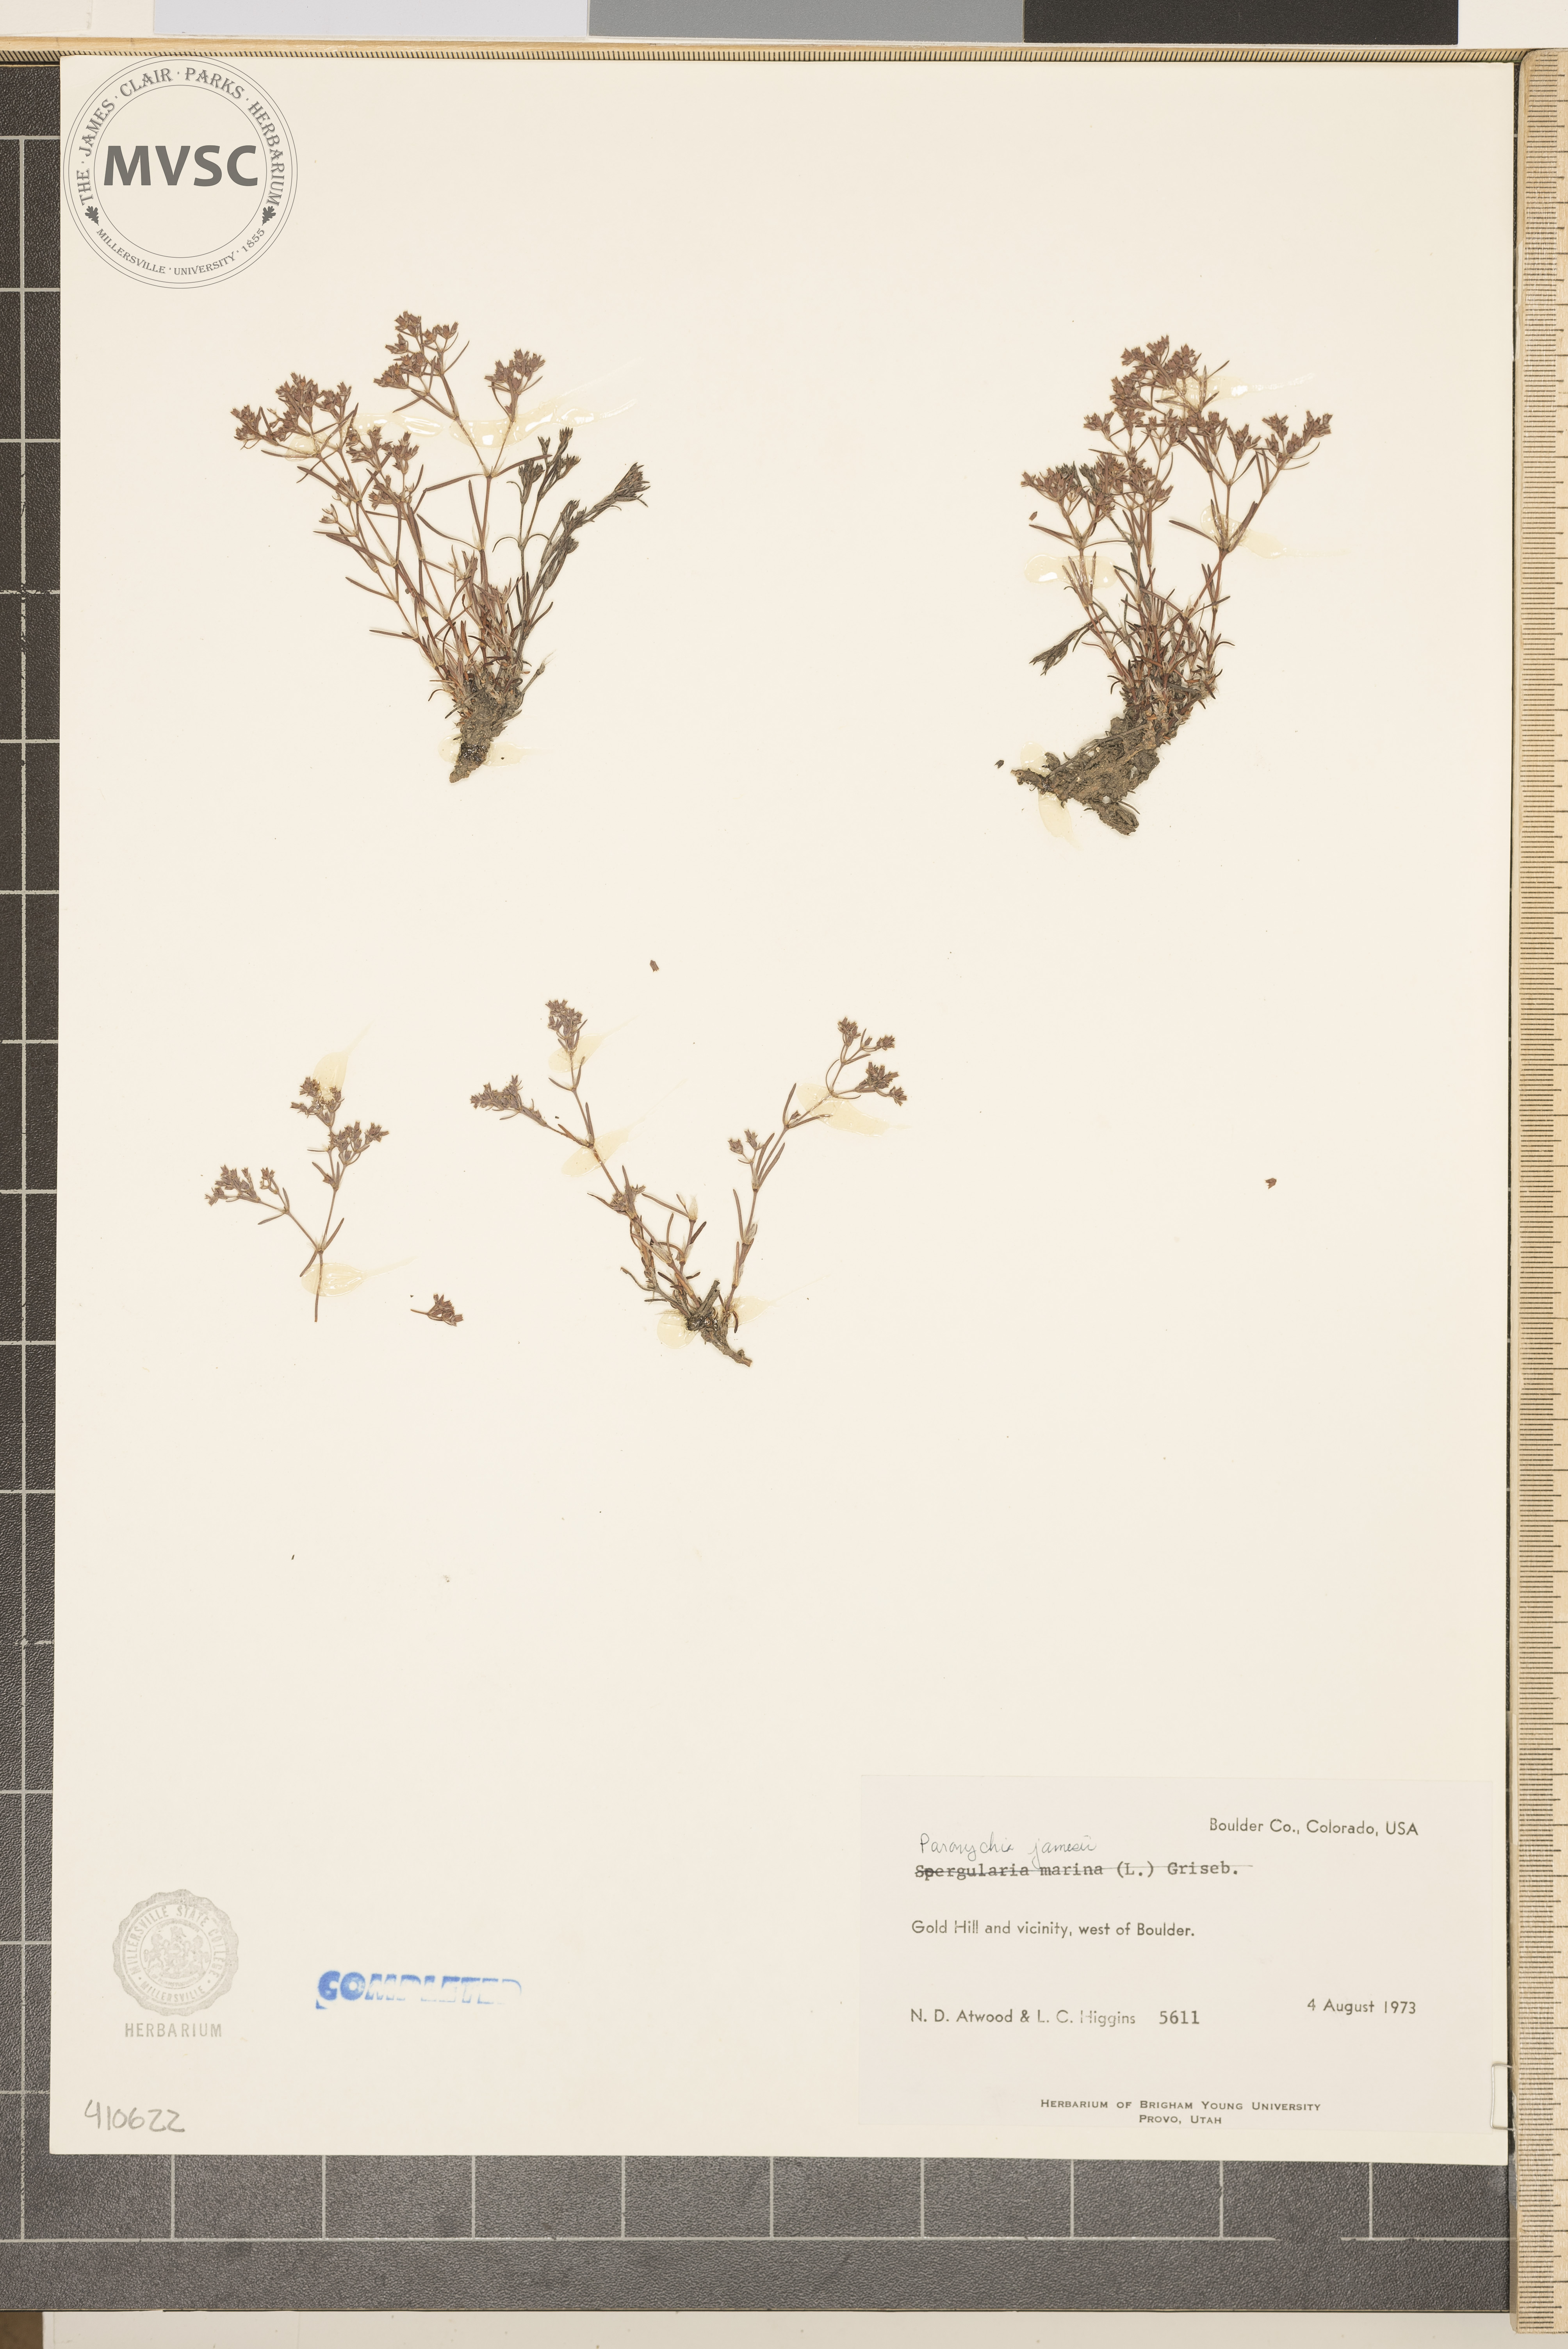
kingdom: Plantae
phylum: Tracheophyta
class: Magnoliopsida
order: Caryophyllales
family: Caryophyllaceae
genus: Paronychia
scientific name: Paronychia jamesii
